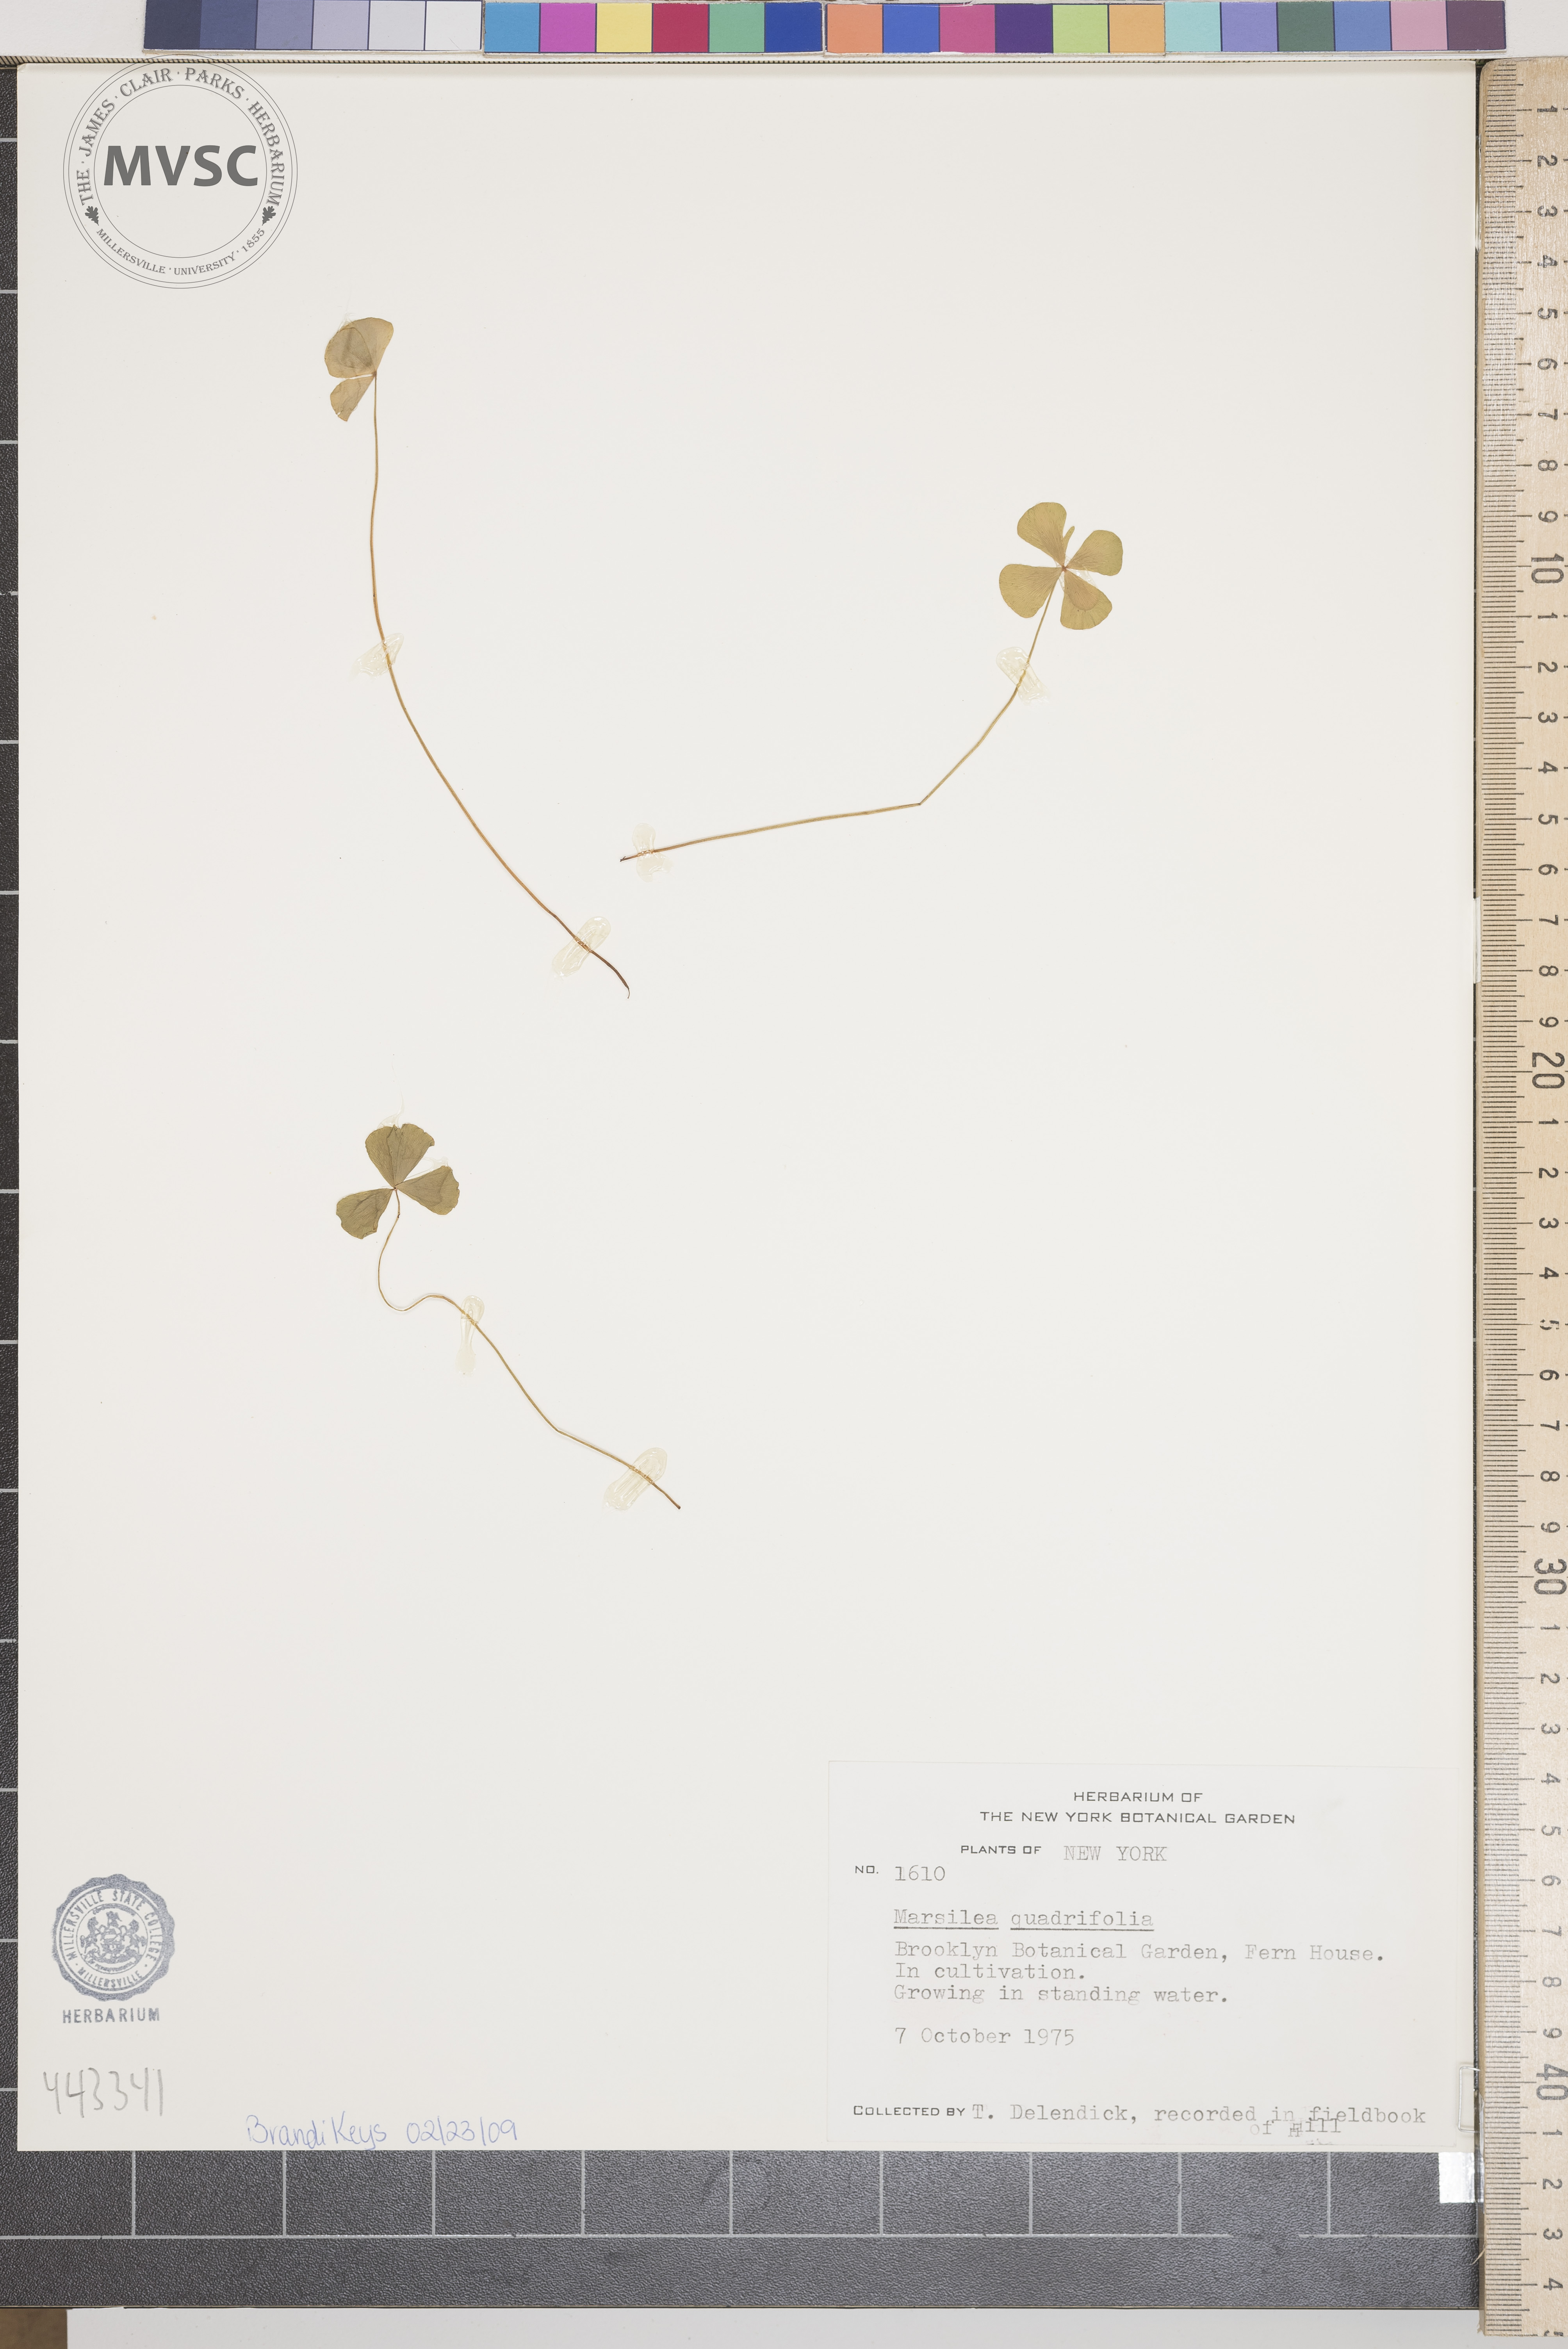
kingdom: Plantae
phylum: Tracheophyta
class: Polypodiopsida
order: Salviniales
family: Marsileaceae
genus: Marsilea
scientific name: Marsilea quadrifolia
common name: Water shamrock
